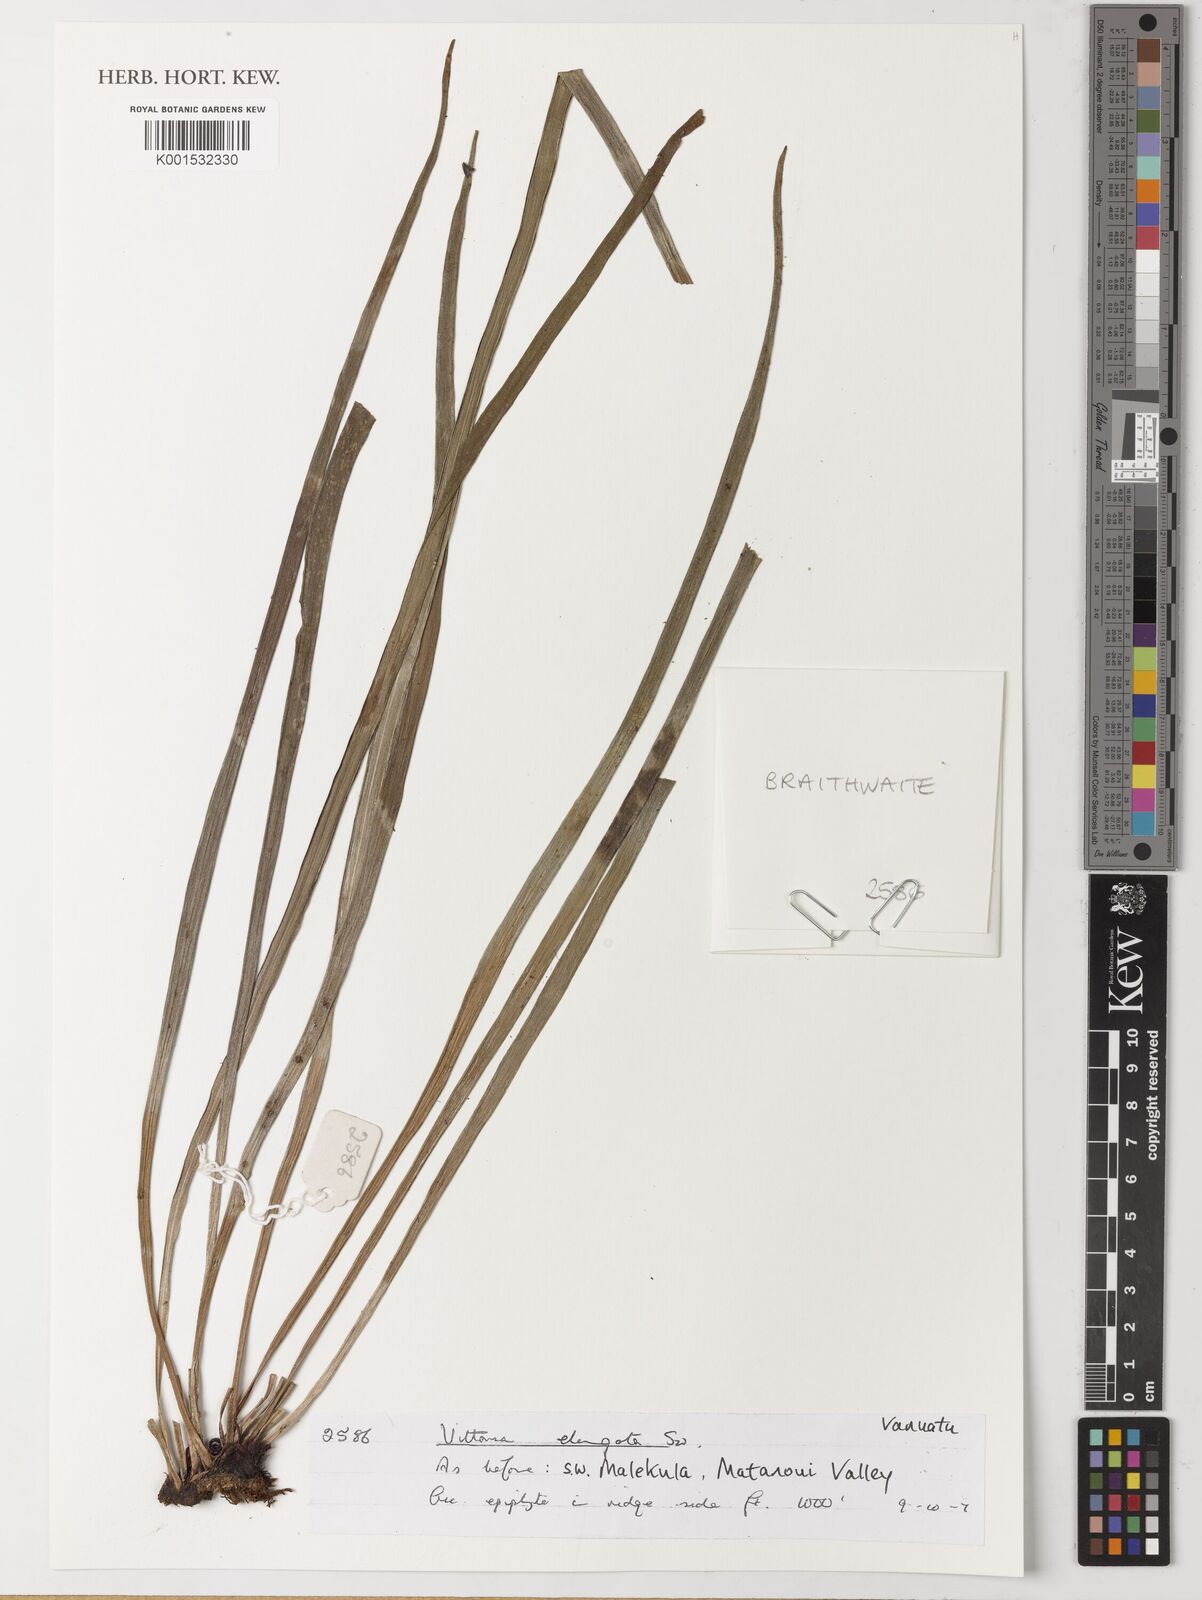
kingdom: Plantae
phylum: Tracheophyta
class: Polypodiopsida
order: Polypodiales
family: Pteridaceae
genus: Haplopteris
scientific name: Haplopteris elongata
